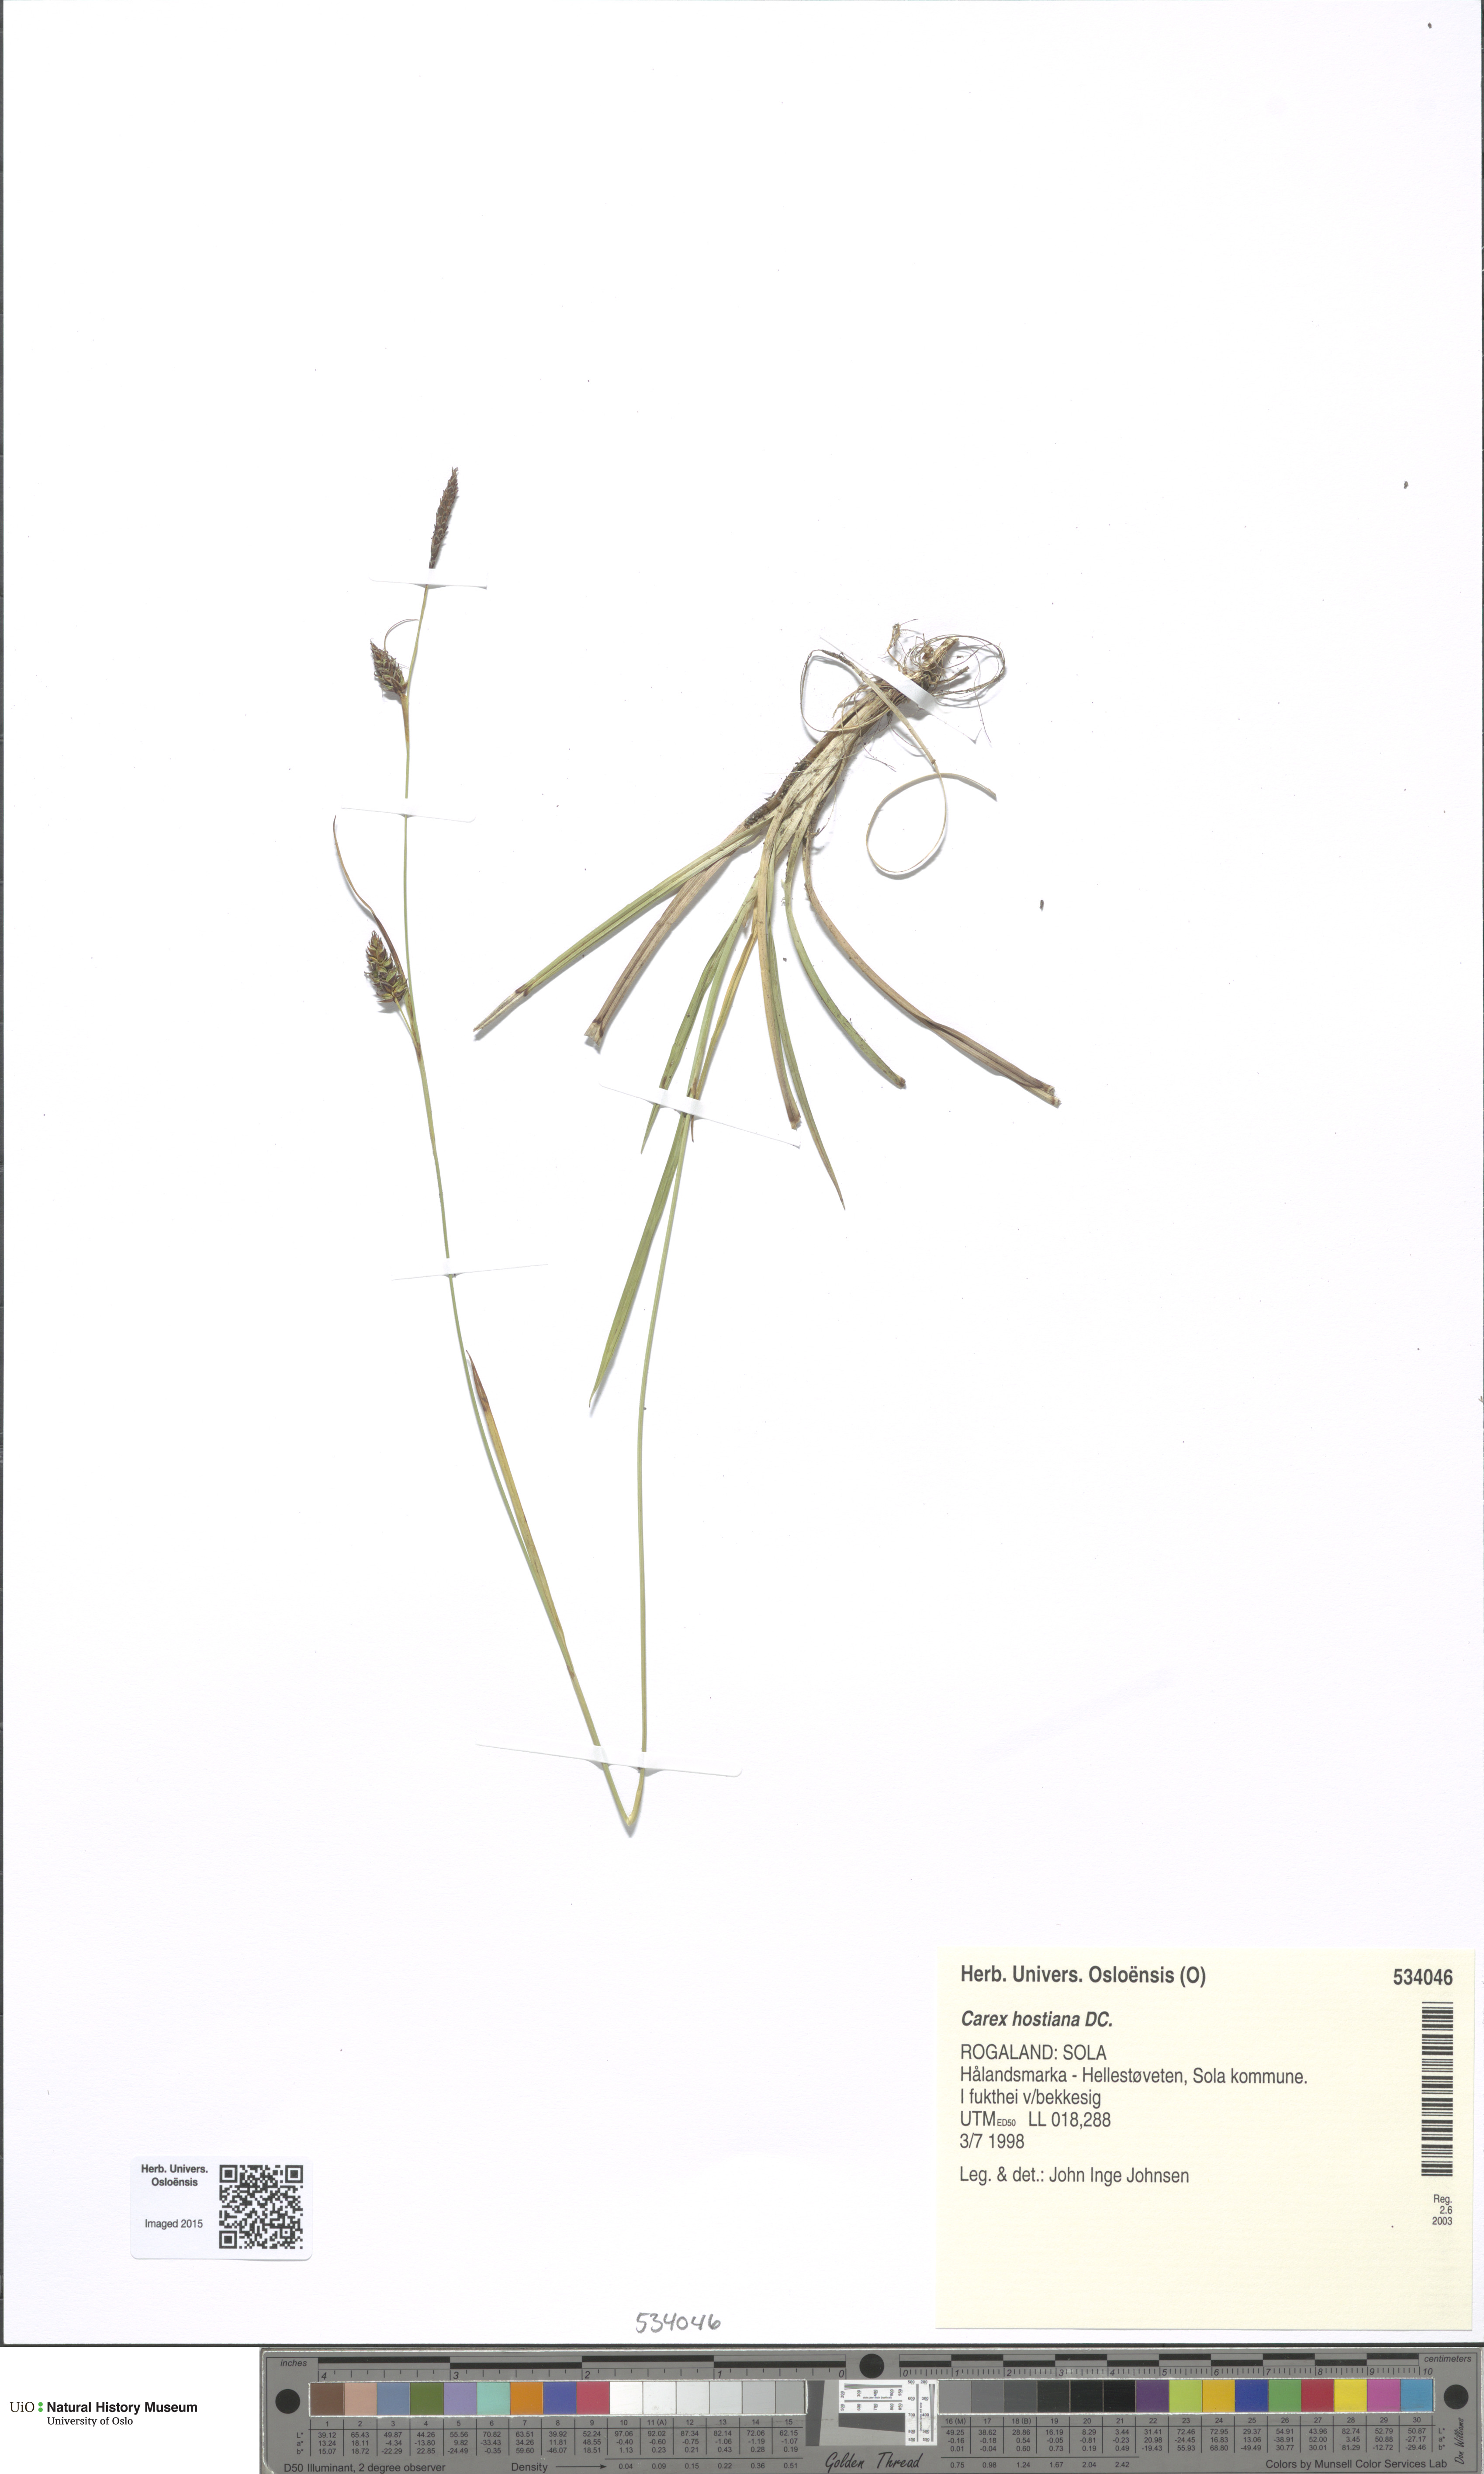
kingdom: Plantae
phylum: Tracheophyta
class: Liliopsida
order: Poales
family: Cyperaceae
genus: Carex
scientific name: Carex hostiana
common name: Tawny sedge
